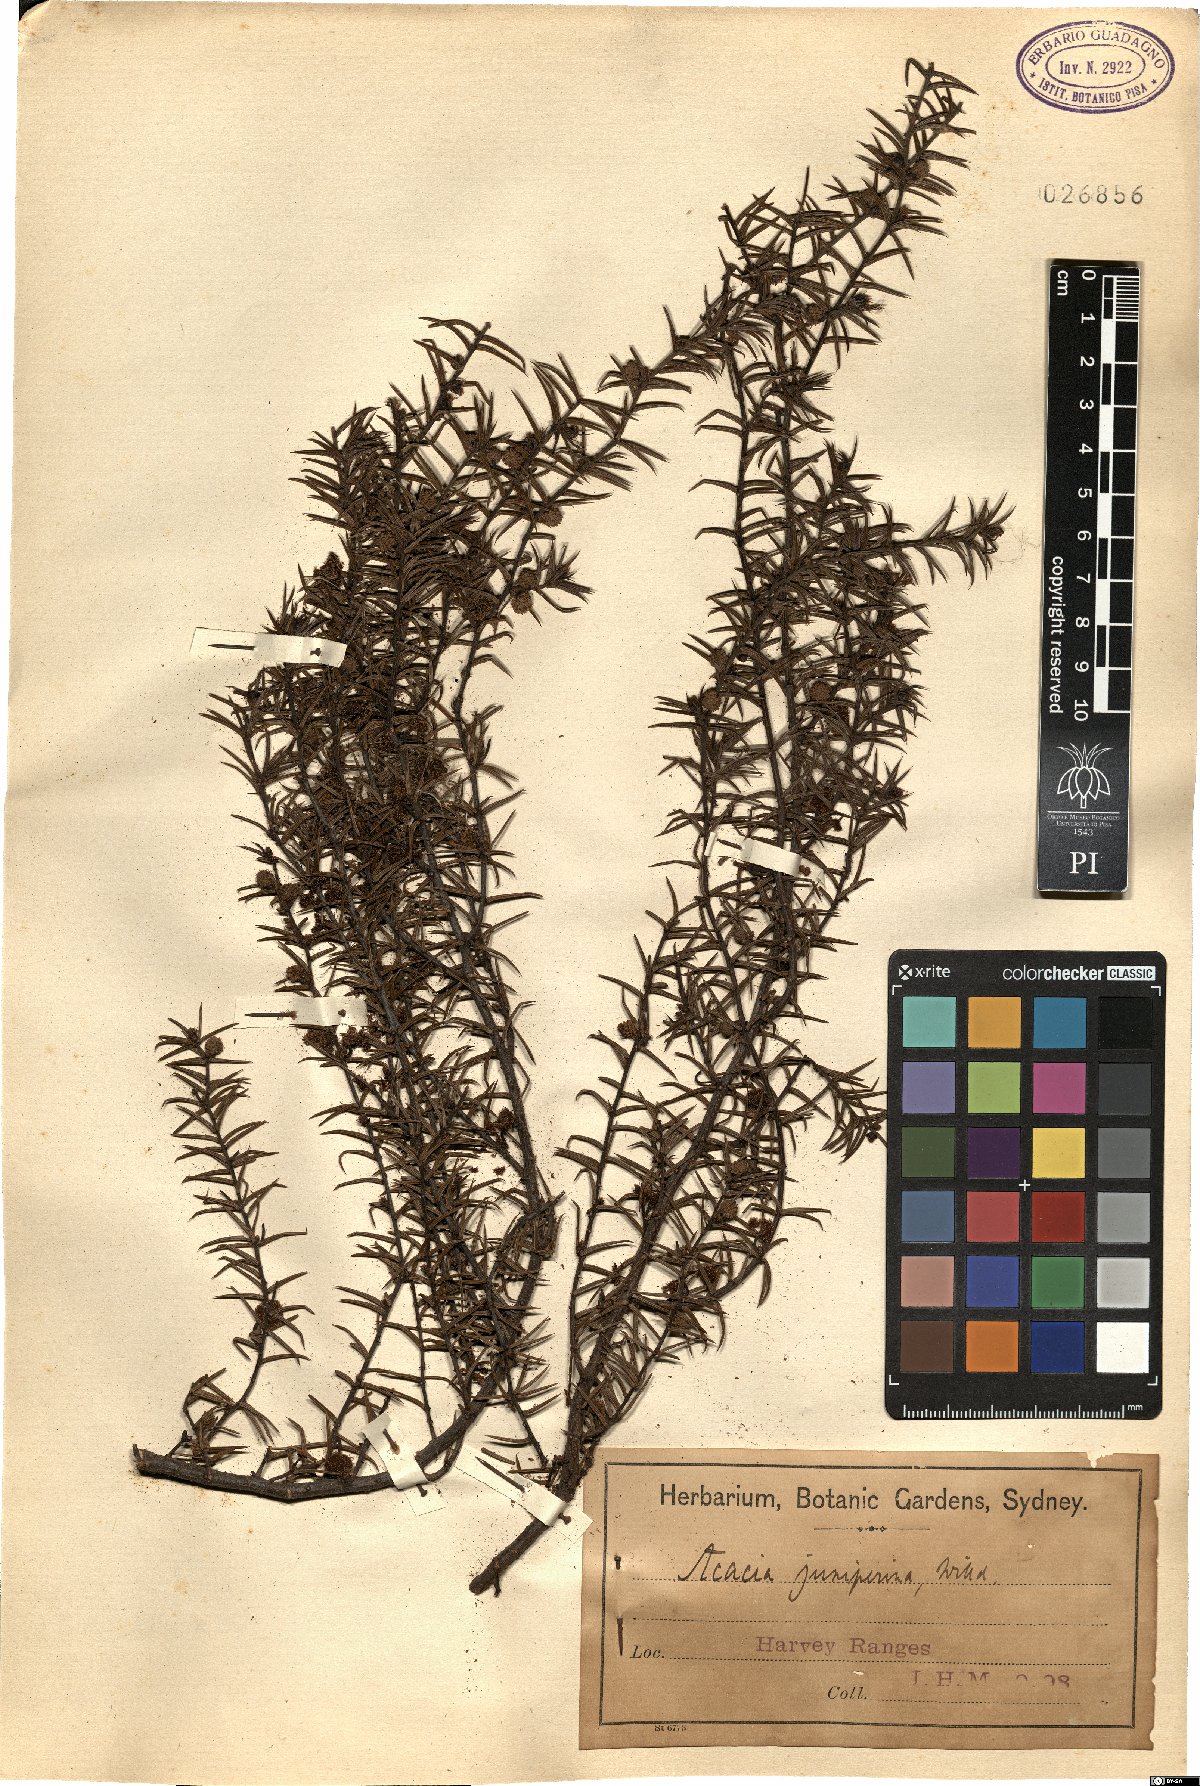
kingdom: Plantae
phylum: Tracheophyta
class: Magnoliopsida
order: Fabales
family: Fabaceae
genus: Acacia
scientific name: Acacia ulicifolia
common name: Juniper wattle
